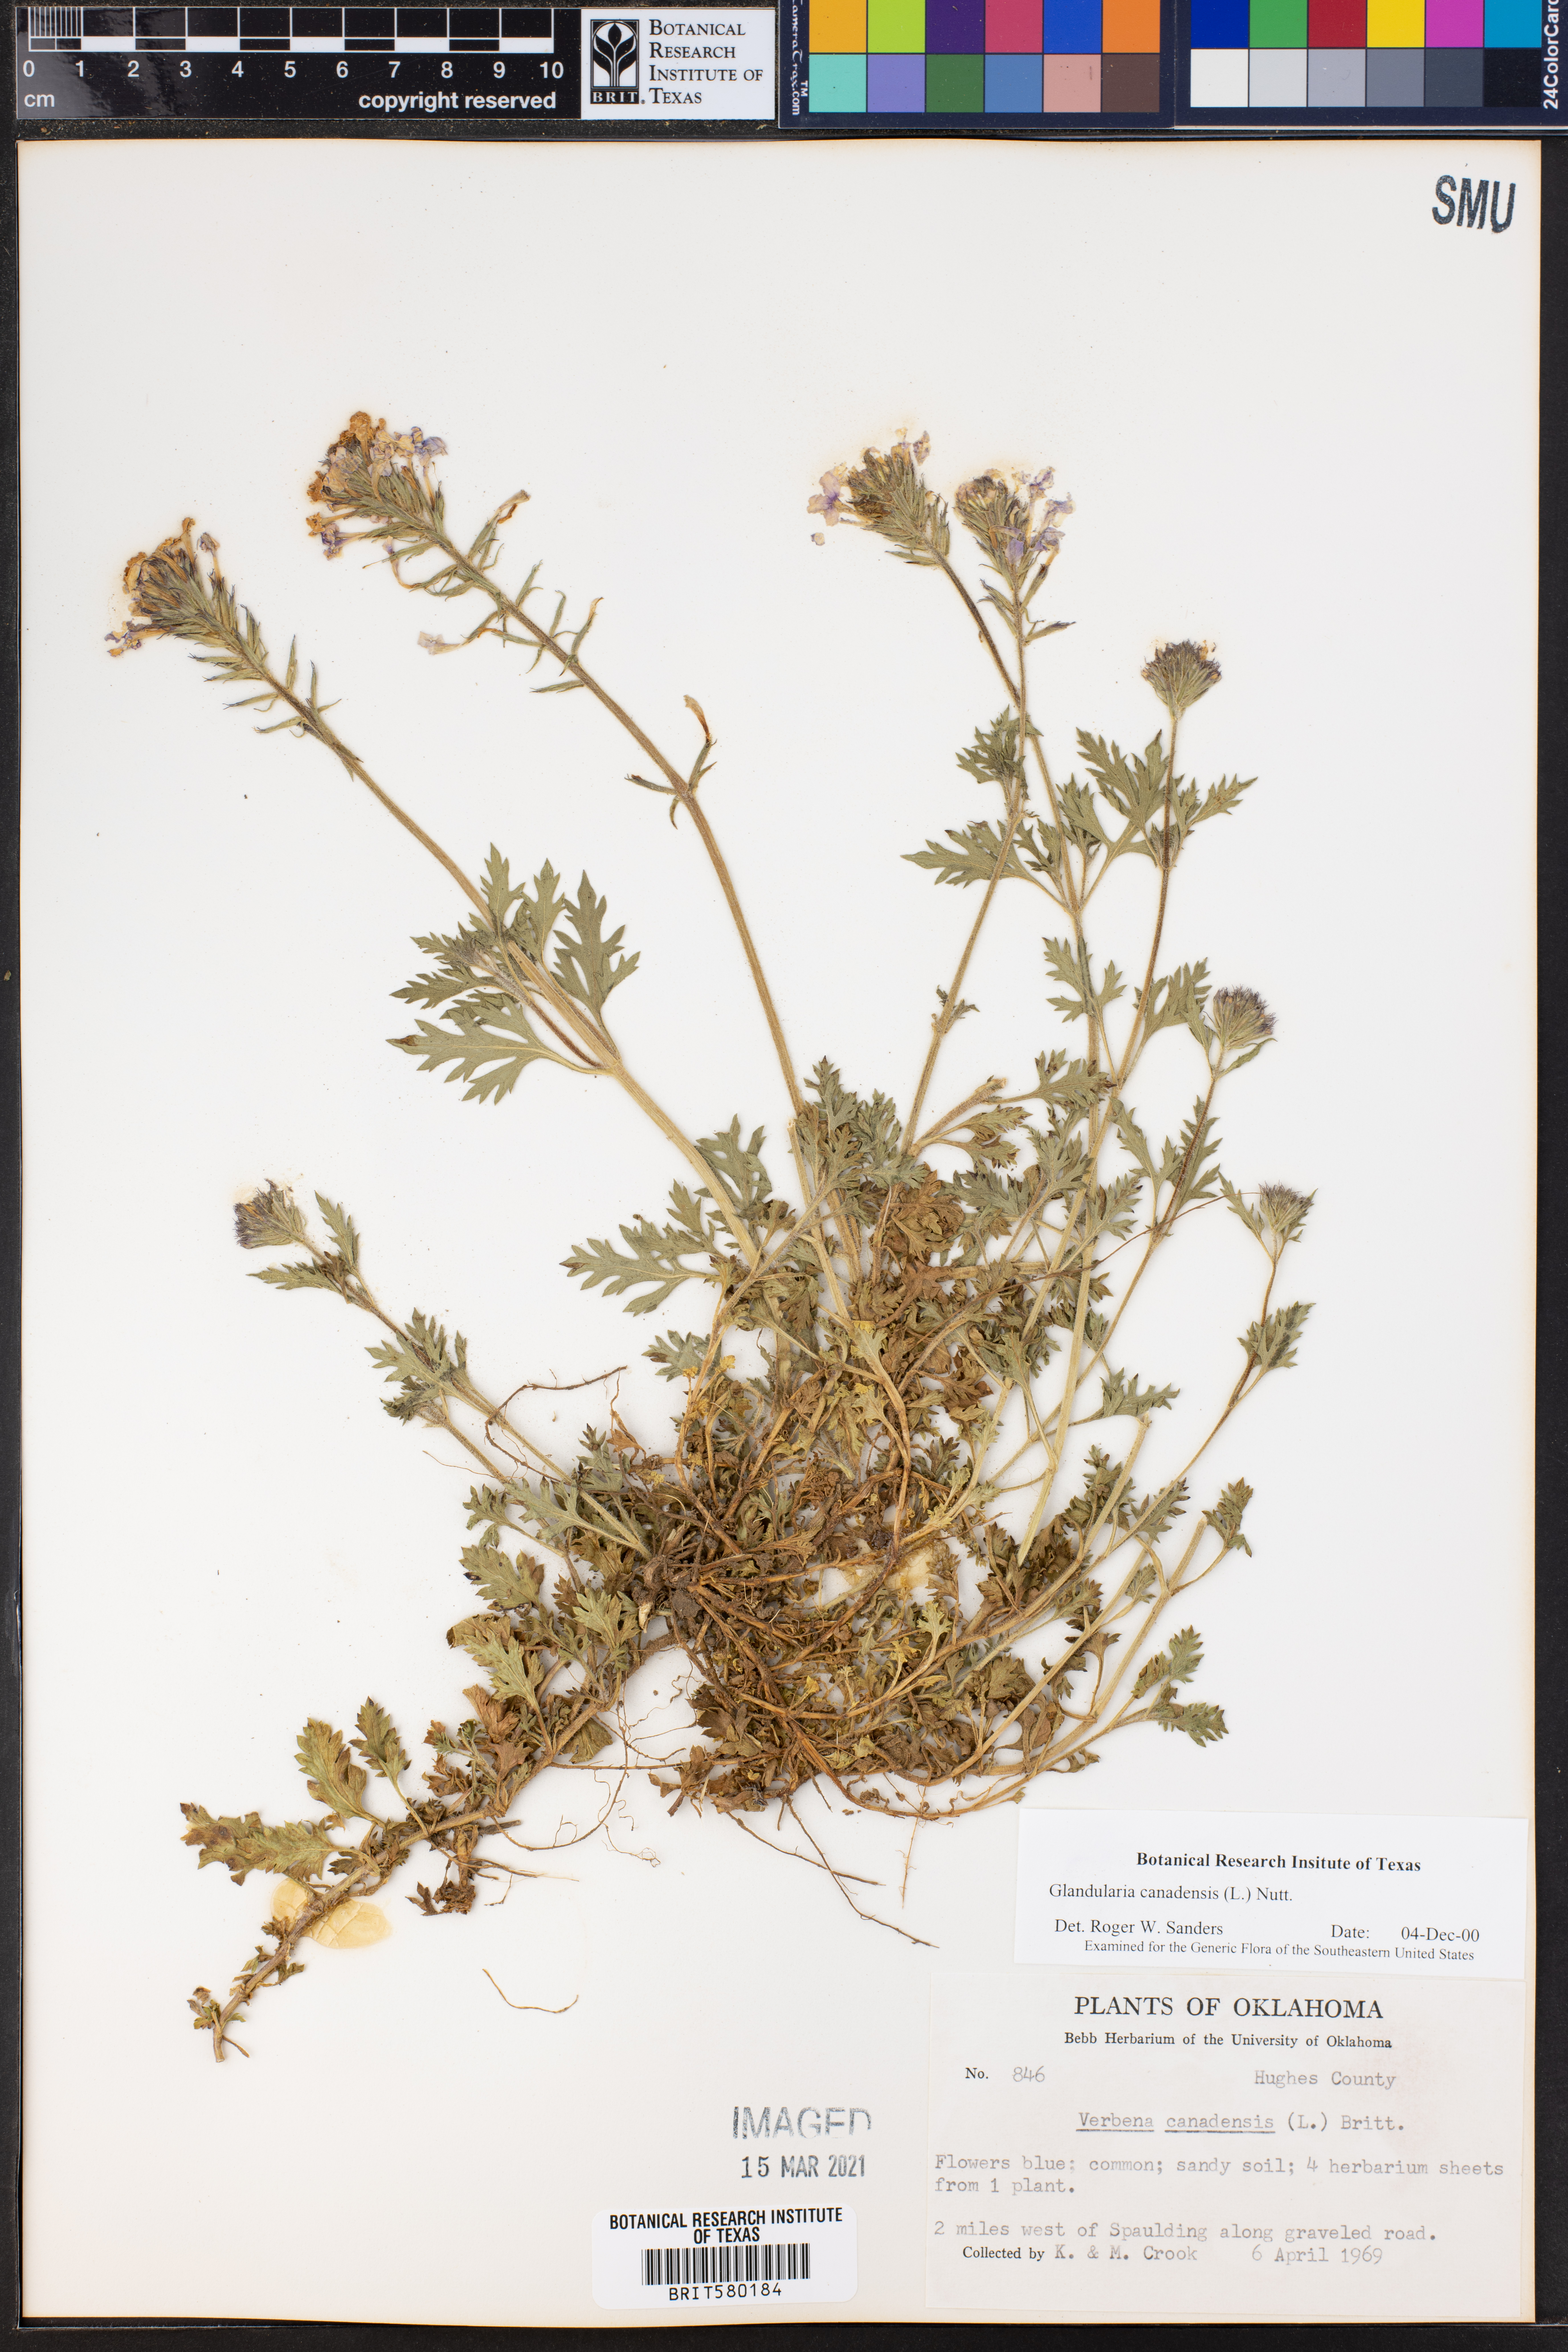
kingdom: Plantae
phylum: Tracheophyta
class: Magnoliopsida
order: Lamiales
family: Verbenaceae
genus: Verbena
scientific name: Verbena canadensis
